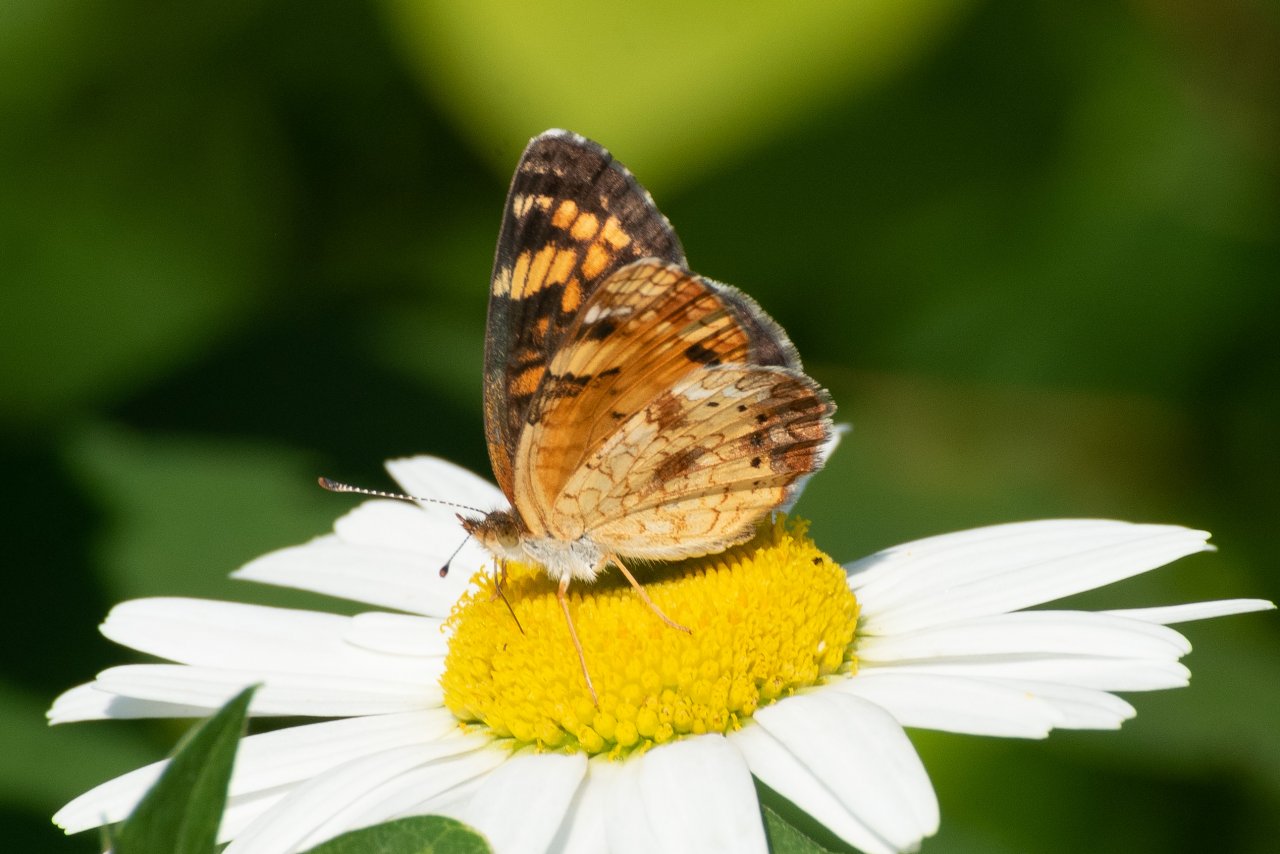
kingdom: Animalia
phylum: Arthropoda
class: Insecta
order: Lepidoptera
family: Nymphalidae
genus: Phyciodes
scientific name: Phyciodes tharos
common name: Northern Crescent
